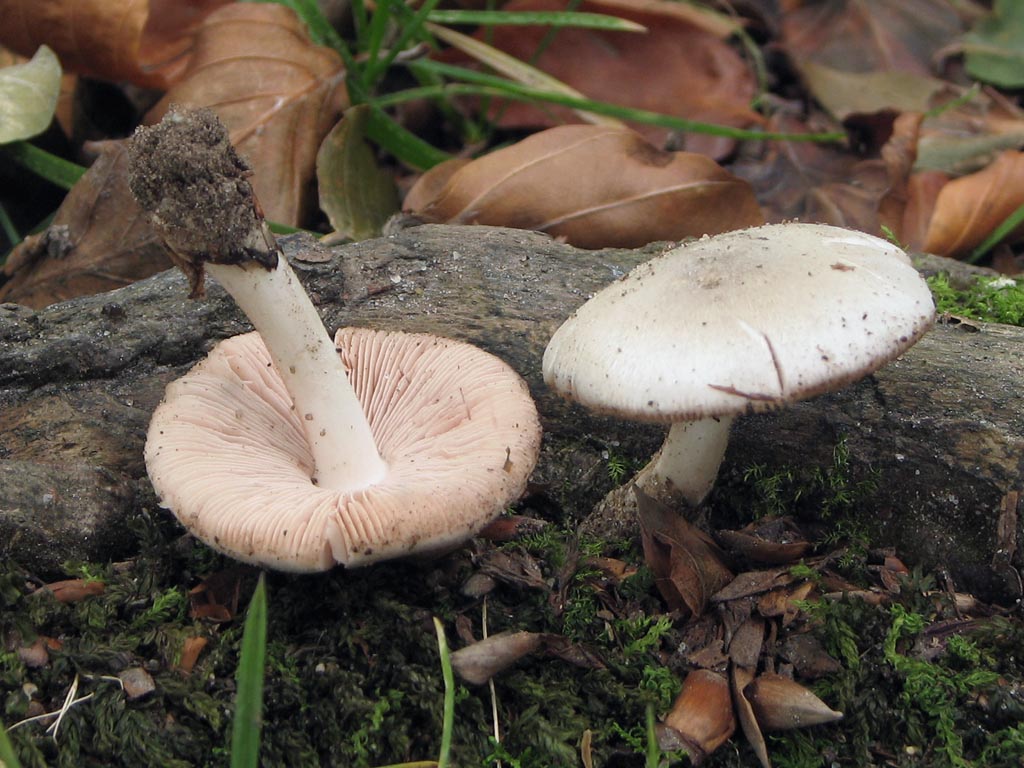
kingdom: Fungi
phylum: Basidiomycota
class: Agaricomycetes
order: Agaricales
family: Pluteaceae
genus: Volvariella
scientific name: Volvariella hypopithys
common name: dunstokket posesvamp
